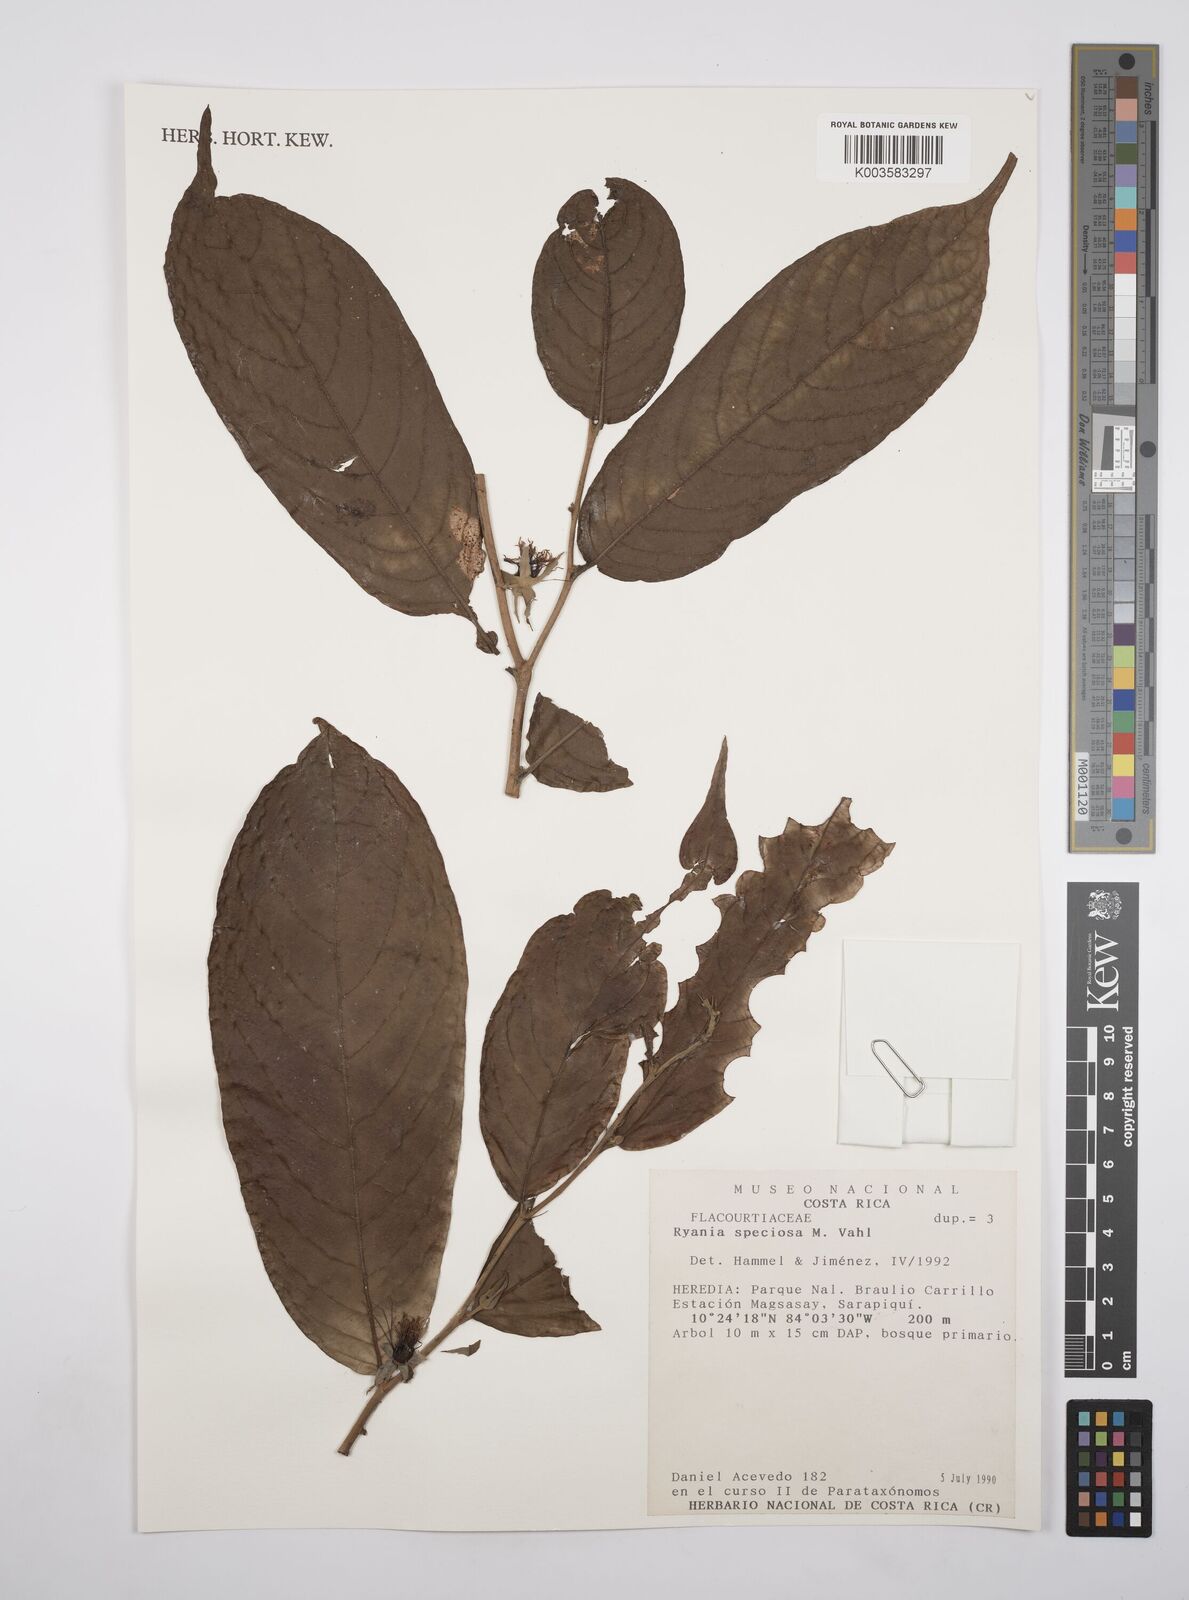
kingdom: Plantae
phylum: Tracheophyta
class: Magnoliopsida
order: Malpighiales
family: Salicaceae
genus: Ryania
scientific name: Ryania speciosa
